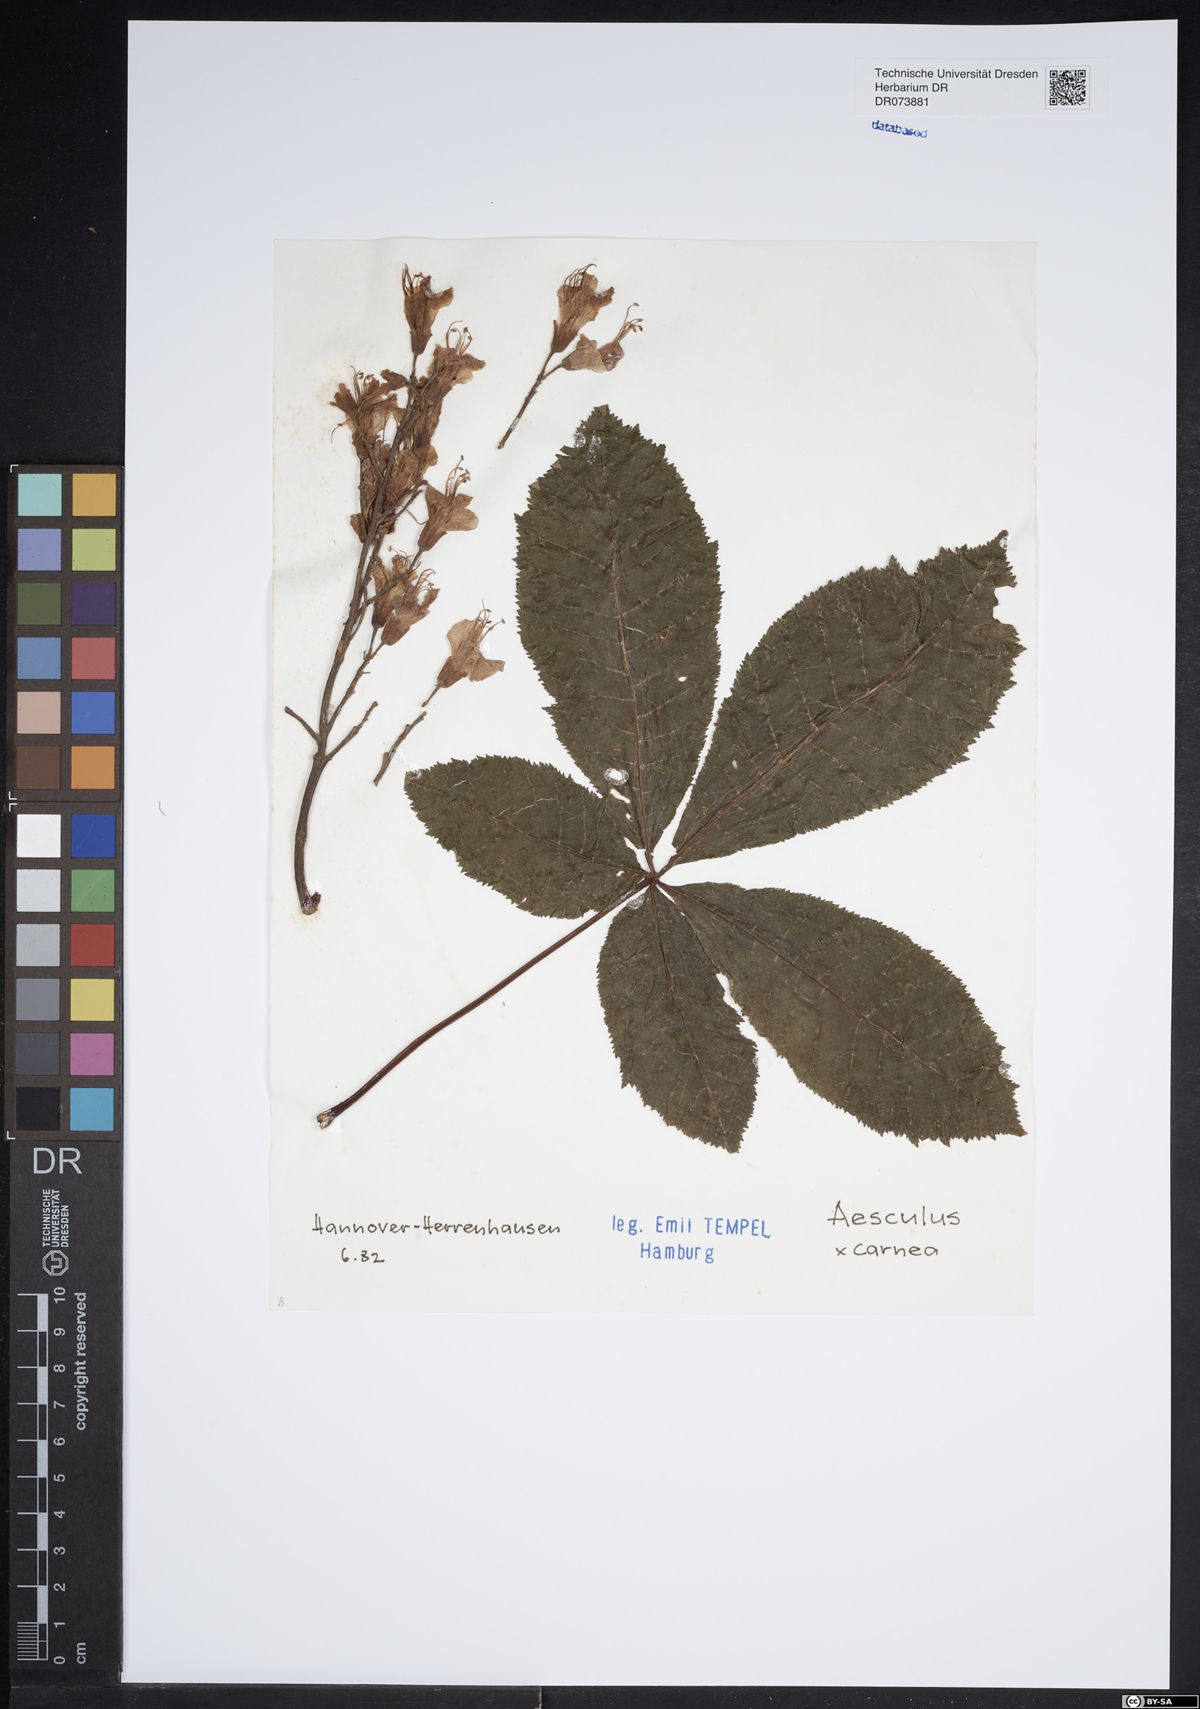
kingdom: Plantae
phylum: Tracheophyta
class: Magnoliopsida
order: Sapindales
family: Hippocastanaceae
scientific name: Hippocastanaceae
